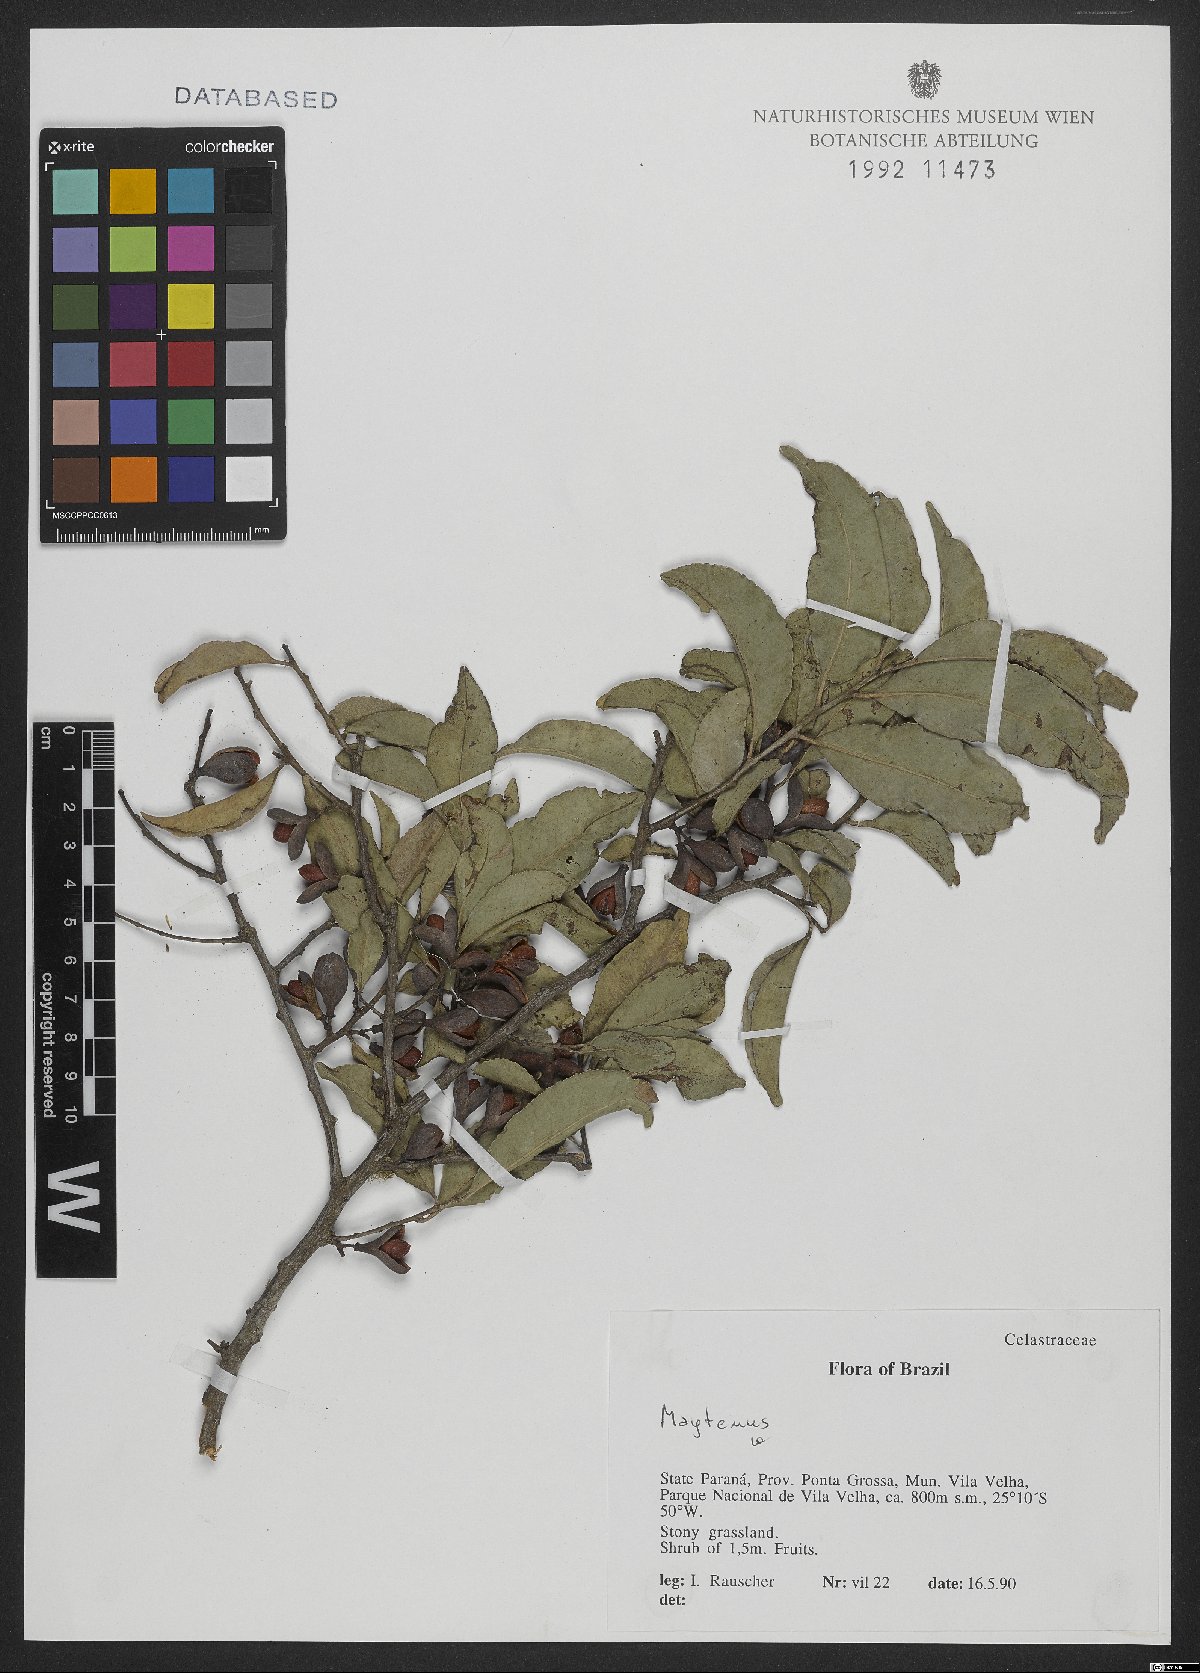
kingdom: Plantae
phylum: Tracheophyta
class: Magnoliopsida
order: Celastrales
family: Celastraceae
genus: Maytenus
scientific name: Maytenus
